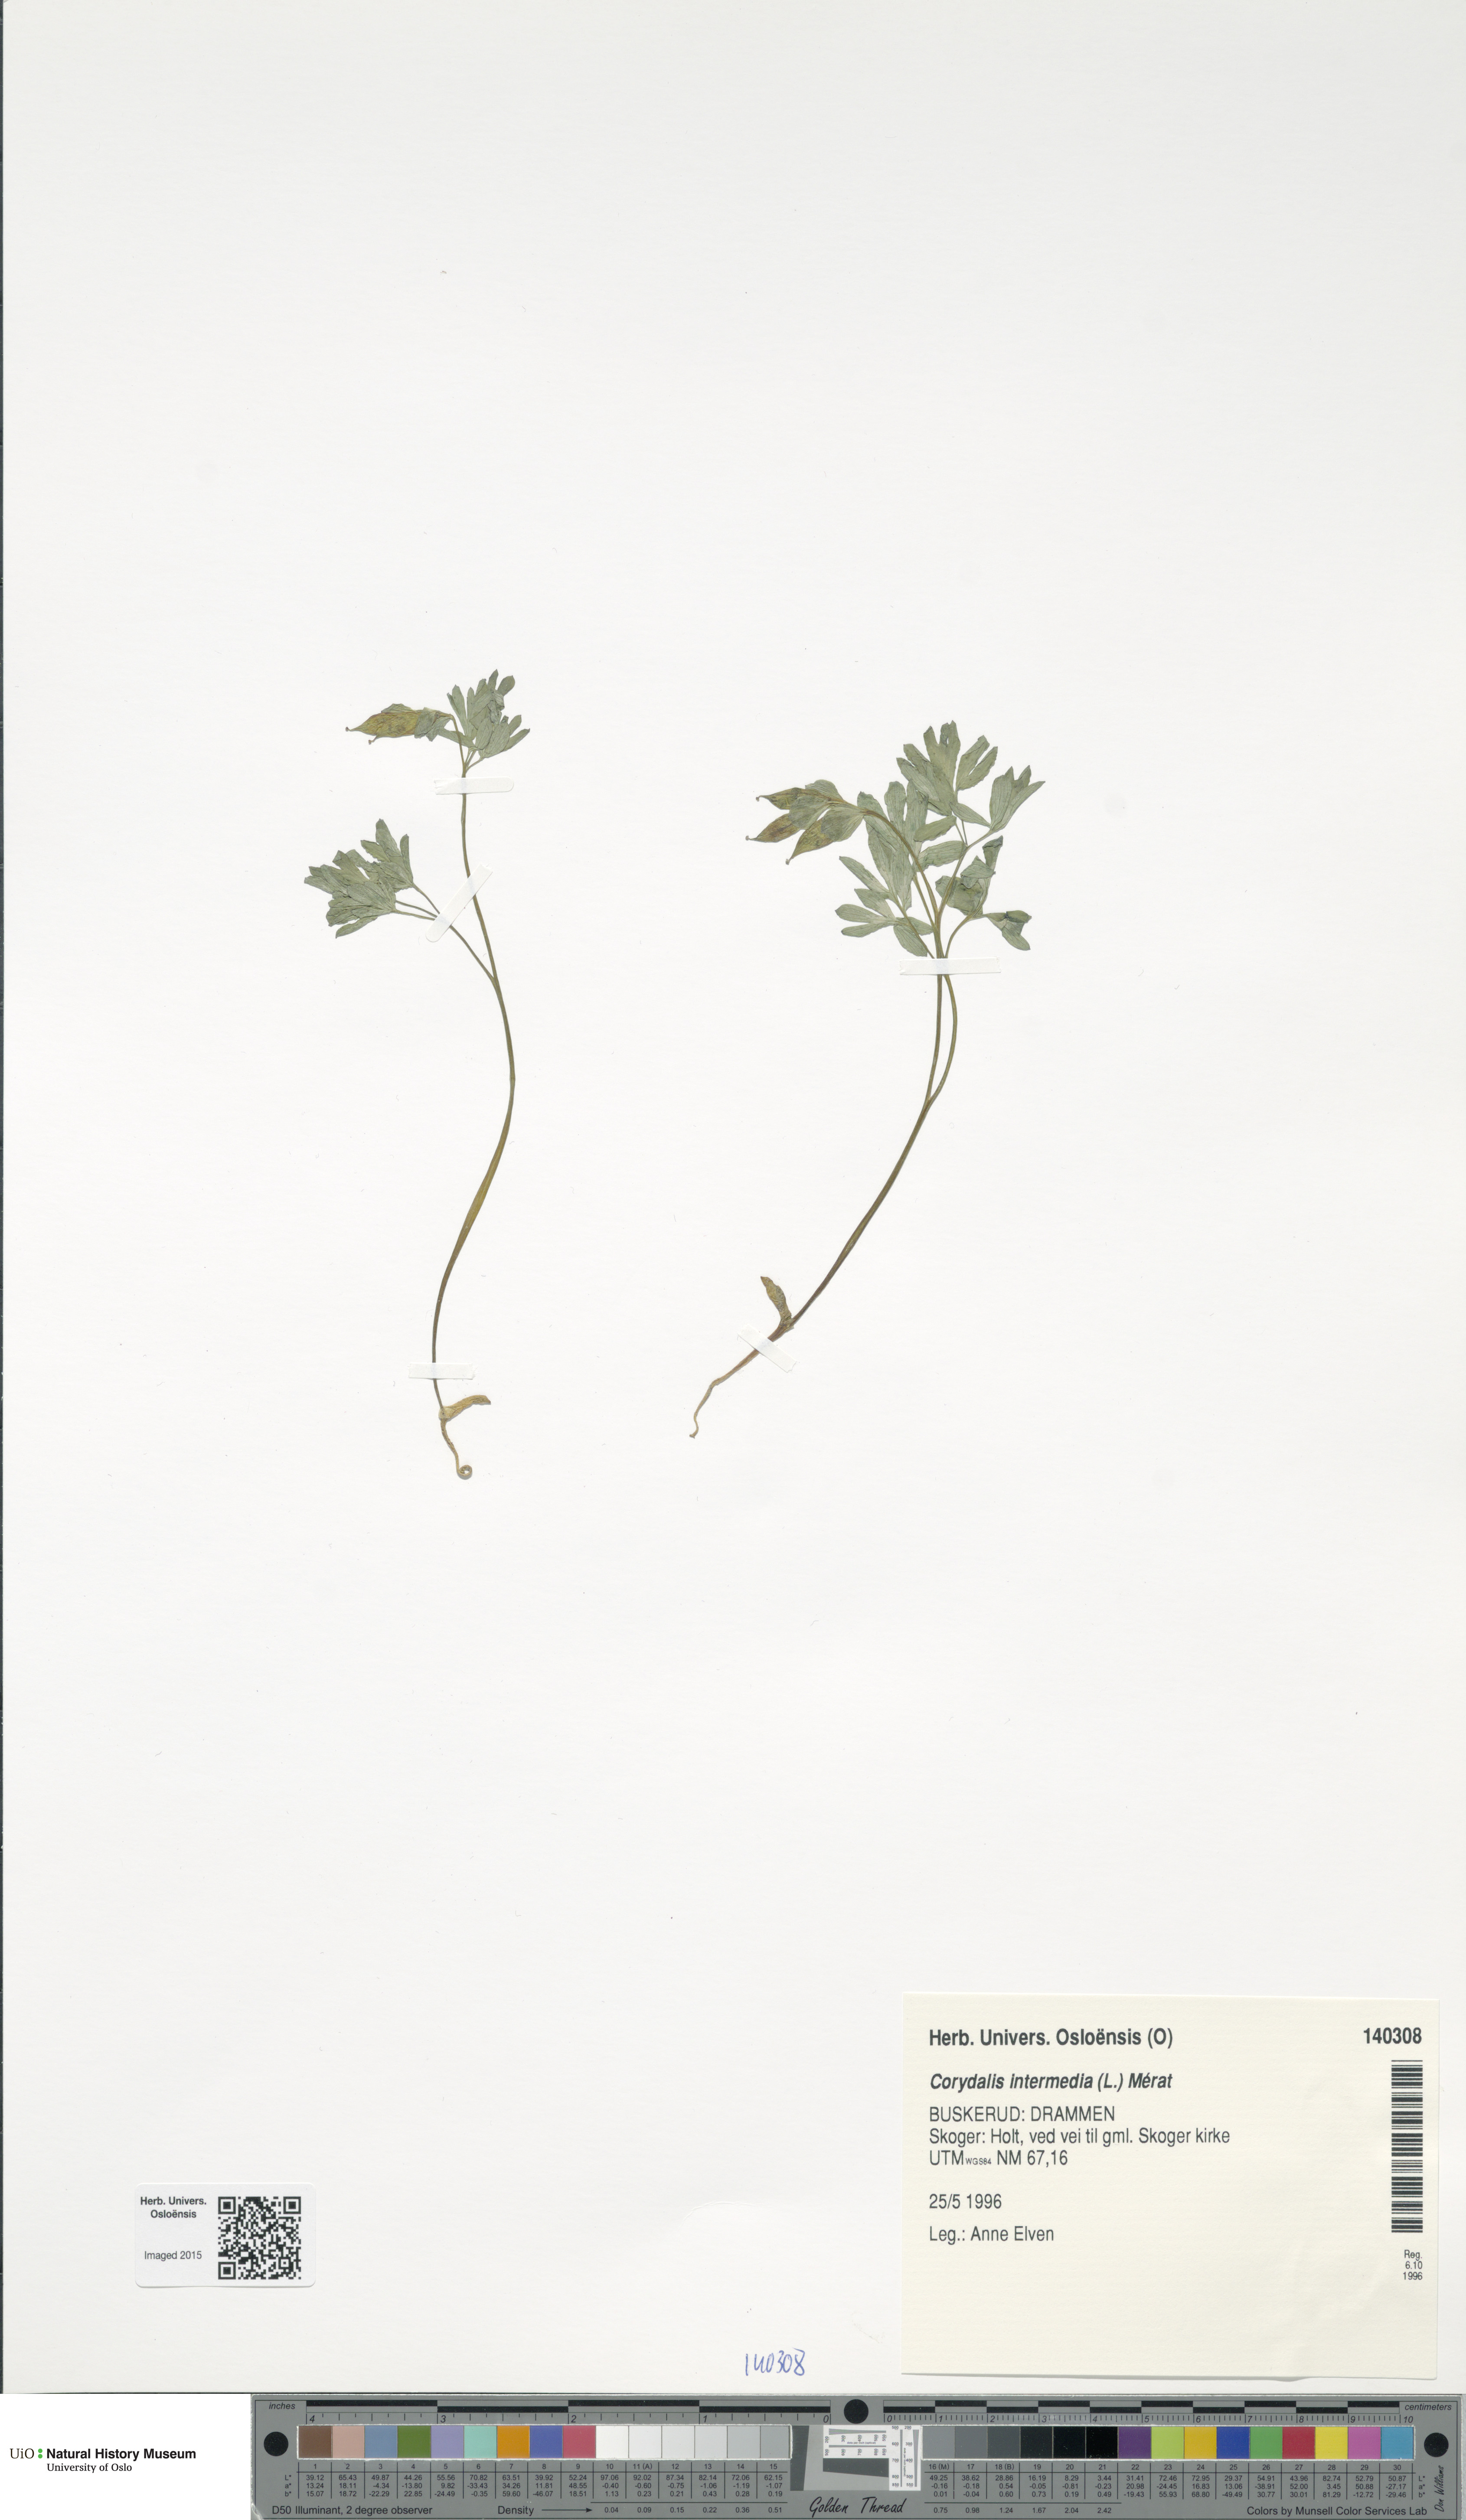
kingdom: Plantae
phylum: Tracheophyta
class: Magnoliopsida
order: Ranunculales
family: Papaveraceae
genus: Corydalis
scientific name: Corydalis intermedia
